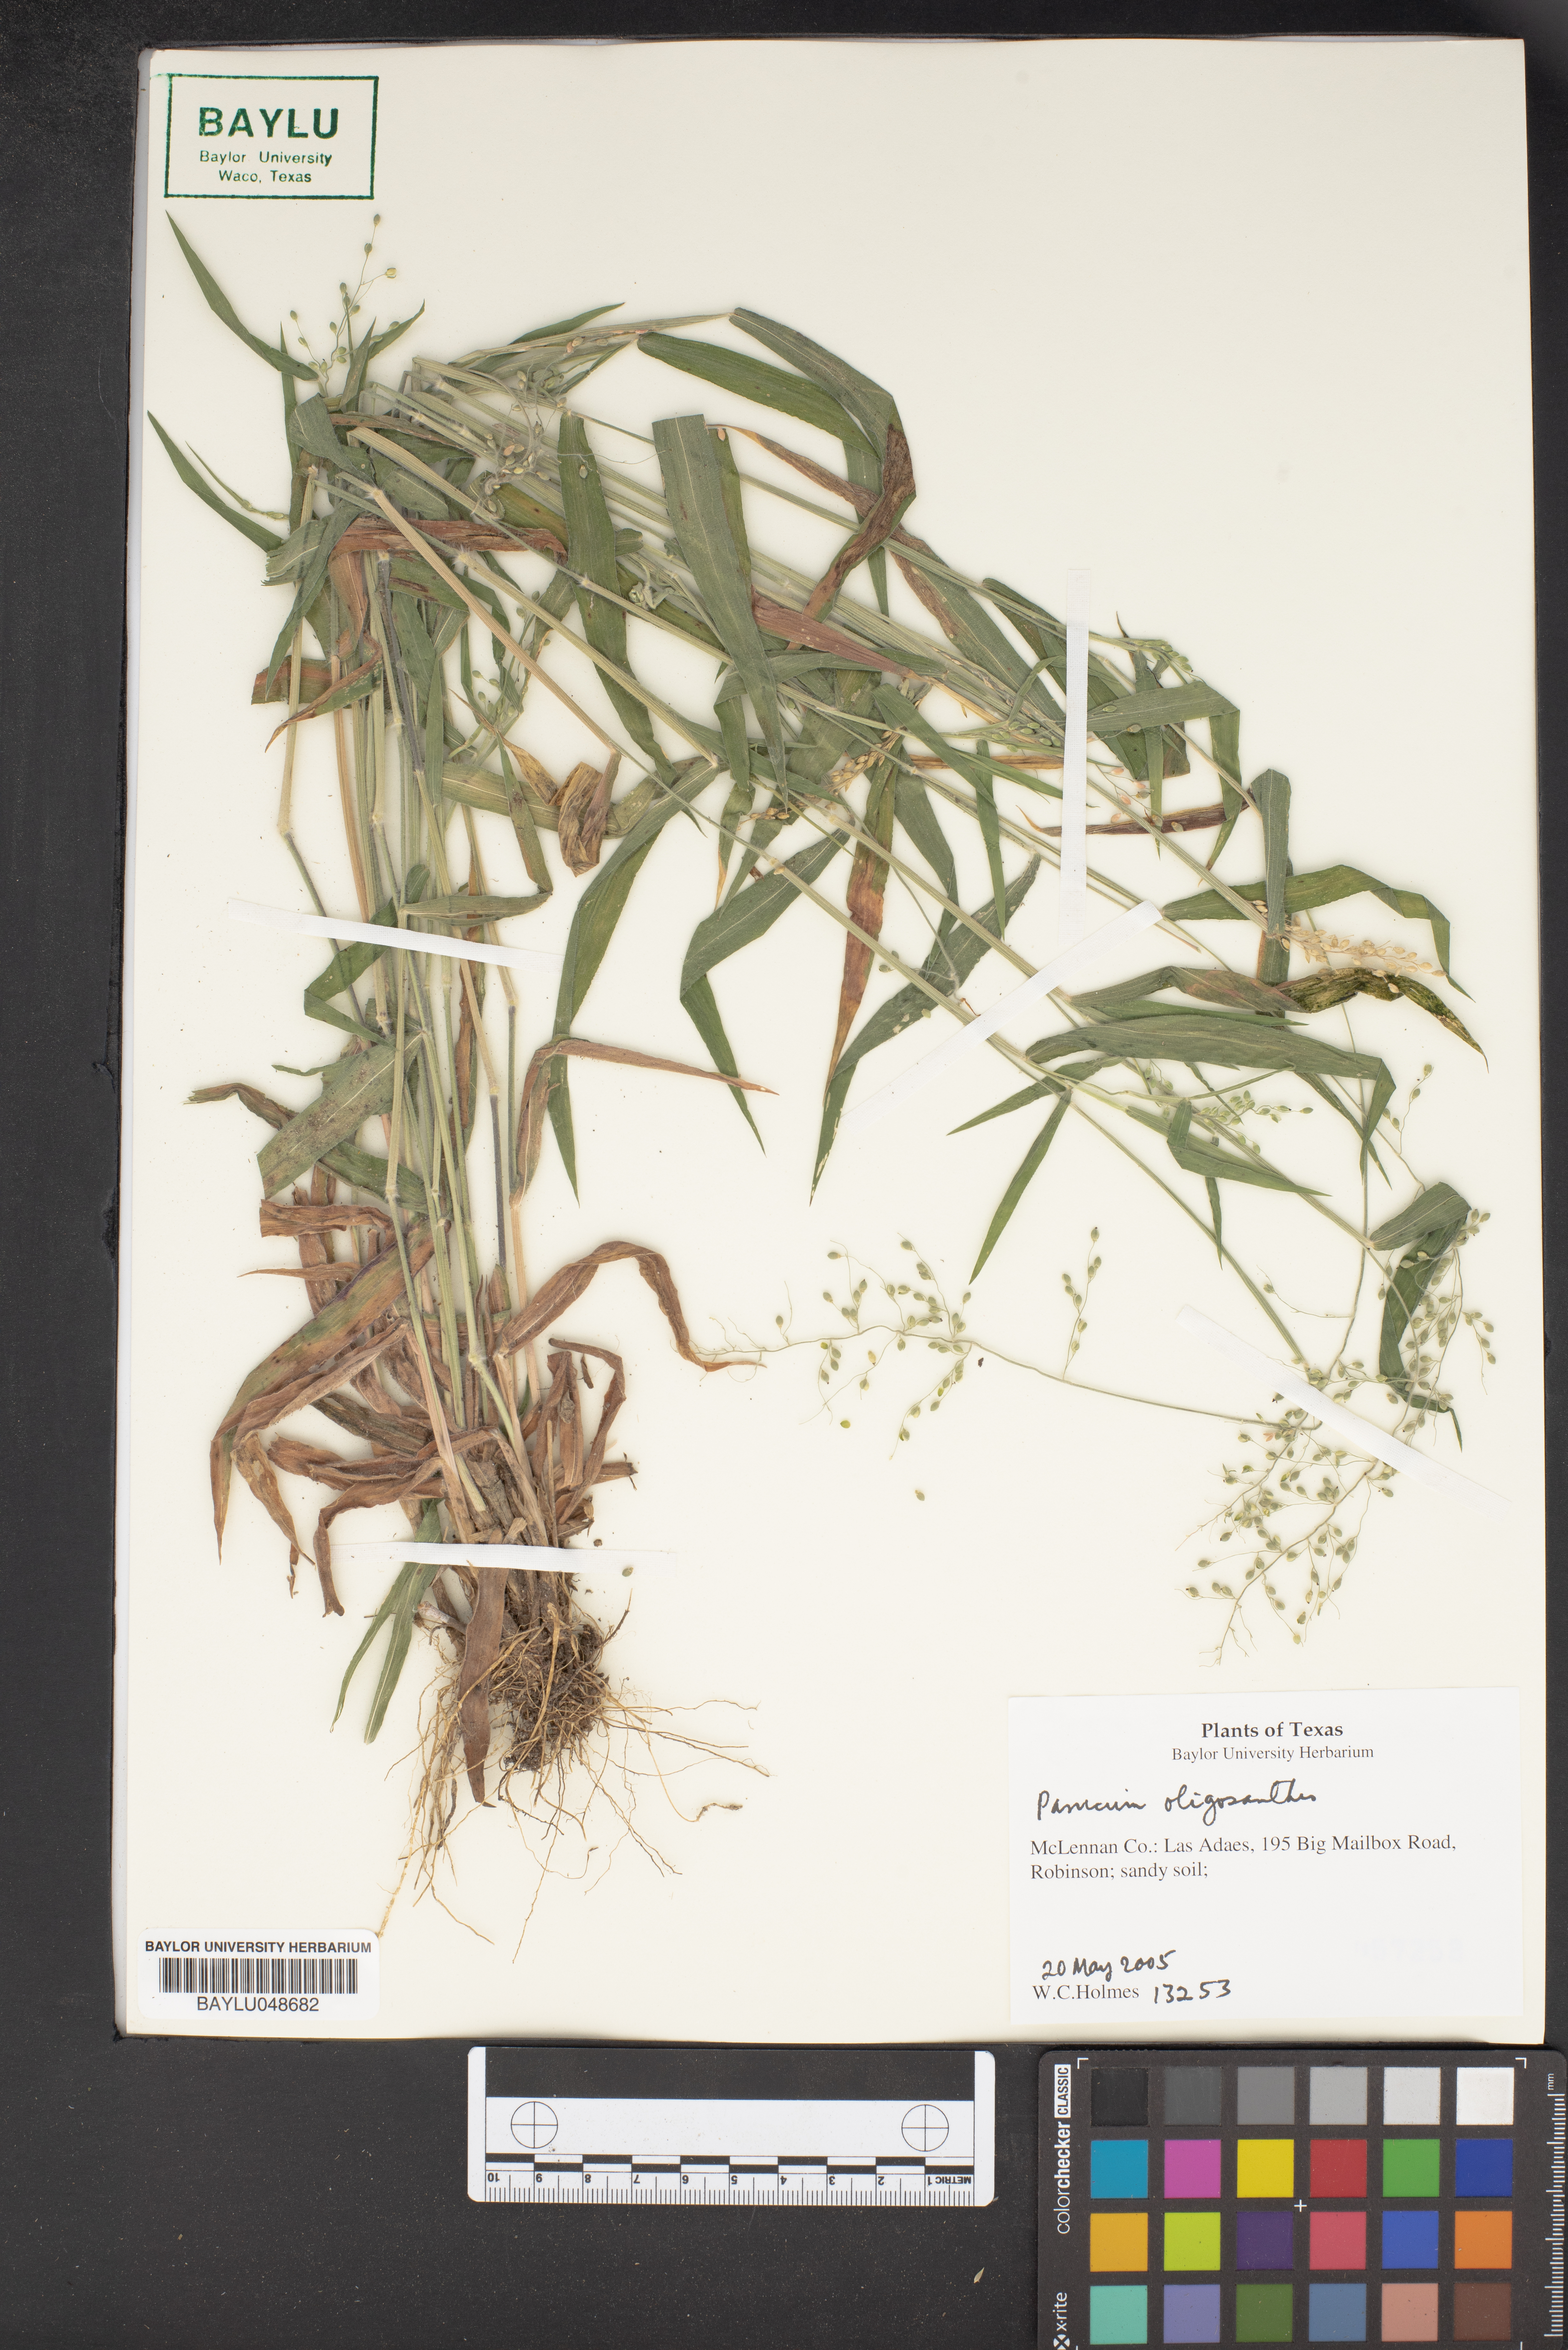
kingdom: Plantae
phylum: Tracheophyta
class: Liliopsida
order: Poales
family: Poaceae
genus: Dichanthelium
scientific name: Dichanthelium oligosanthes
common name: Few-anther obscuregrass
